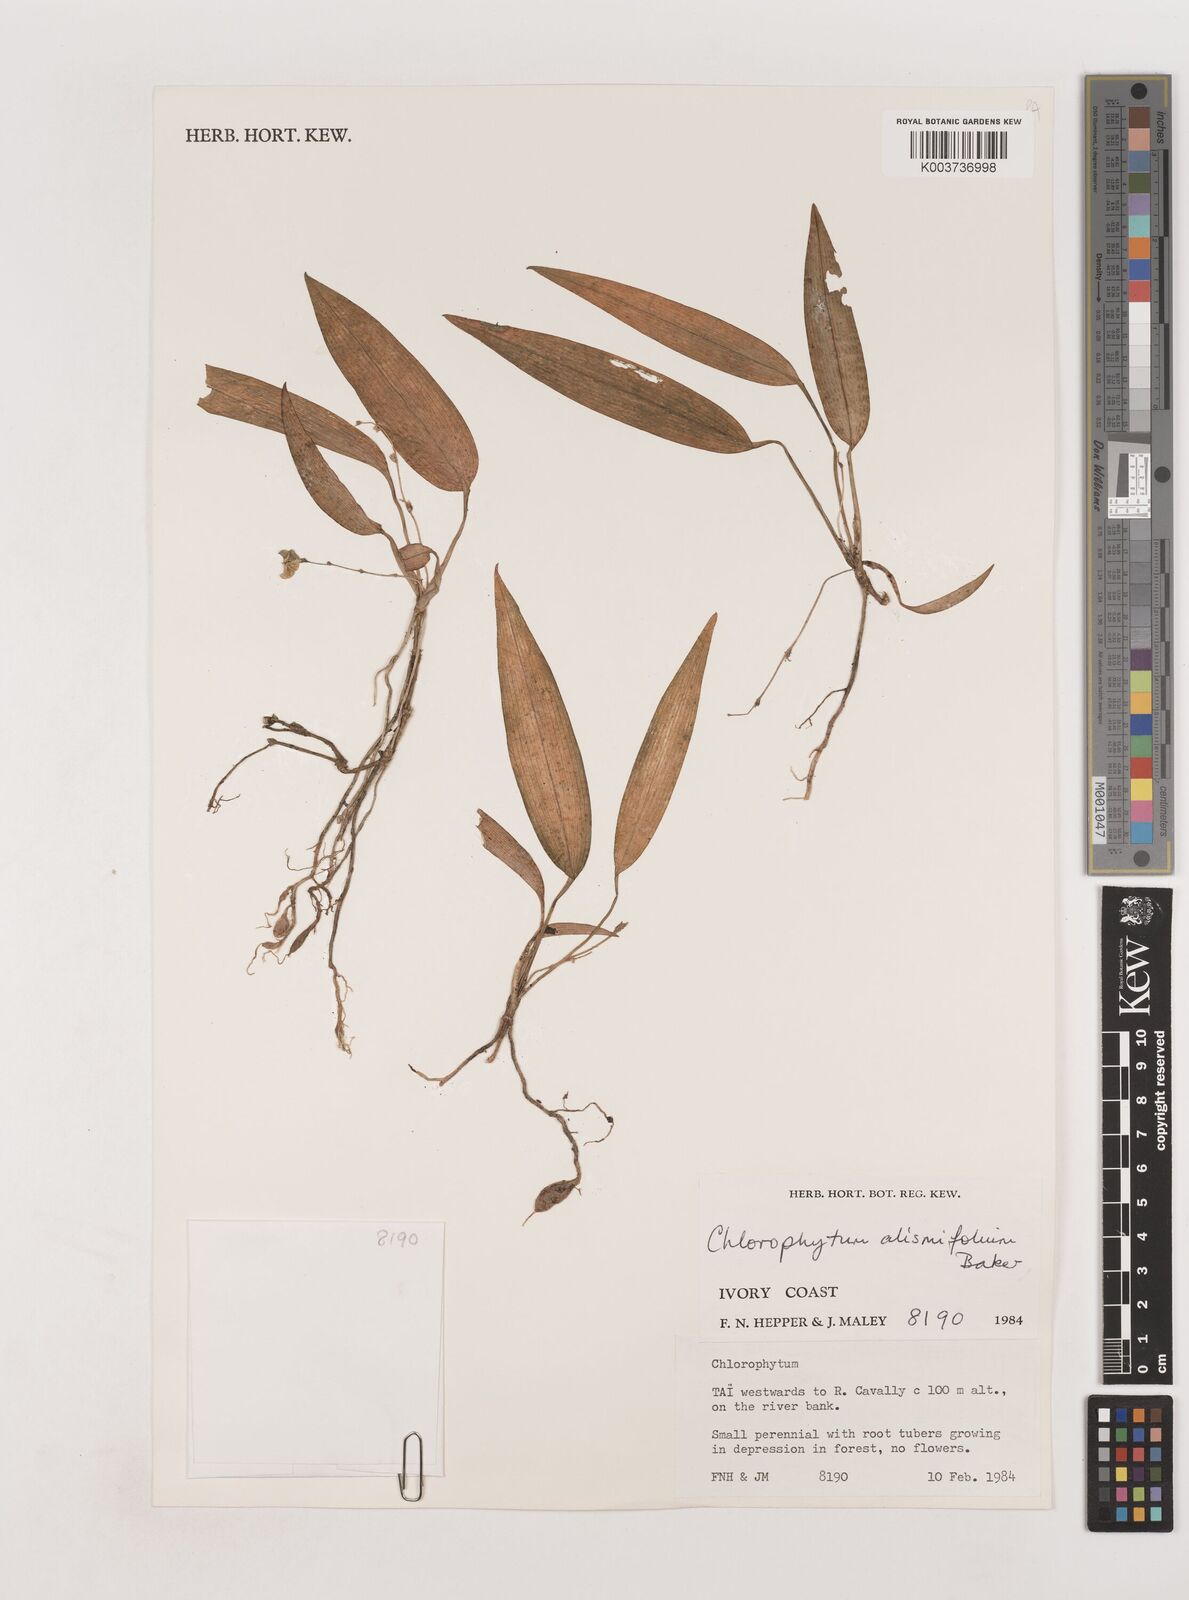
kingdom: Plantae
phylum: Tracheophyta
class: Liliopsida
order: Asparagales
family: Asparagaceae
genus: Chlorophytum
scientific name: Chlorophytum alismifolium
